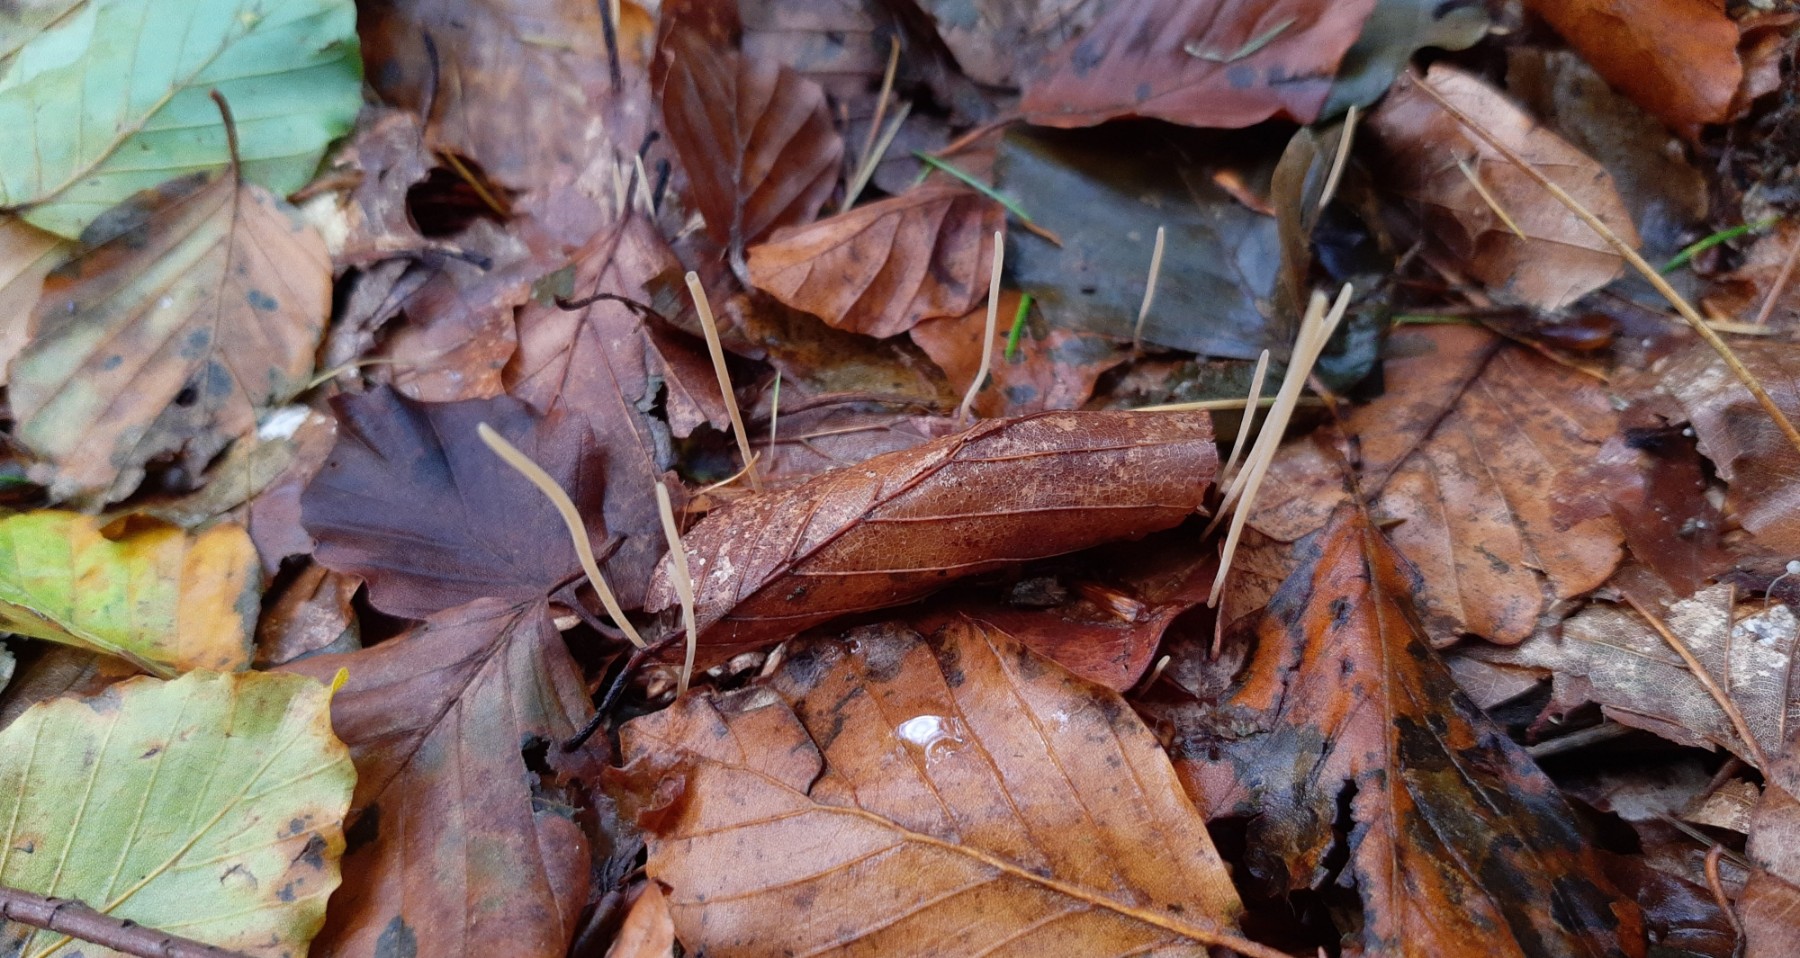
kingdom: Fungi
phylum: Basidiomycota
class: Agaricomycetes
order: Agaricales
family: Typhulaceae
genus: Typhula
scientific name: Typhula juncea
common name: trådagtig rørkølle
